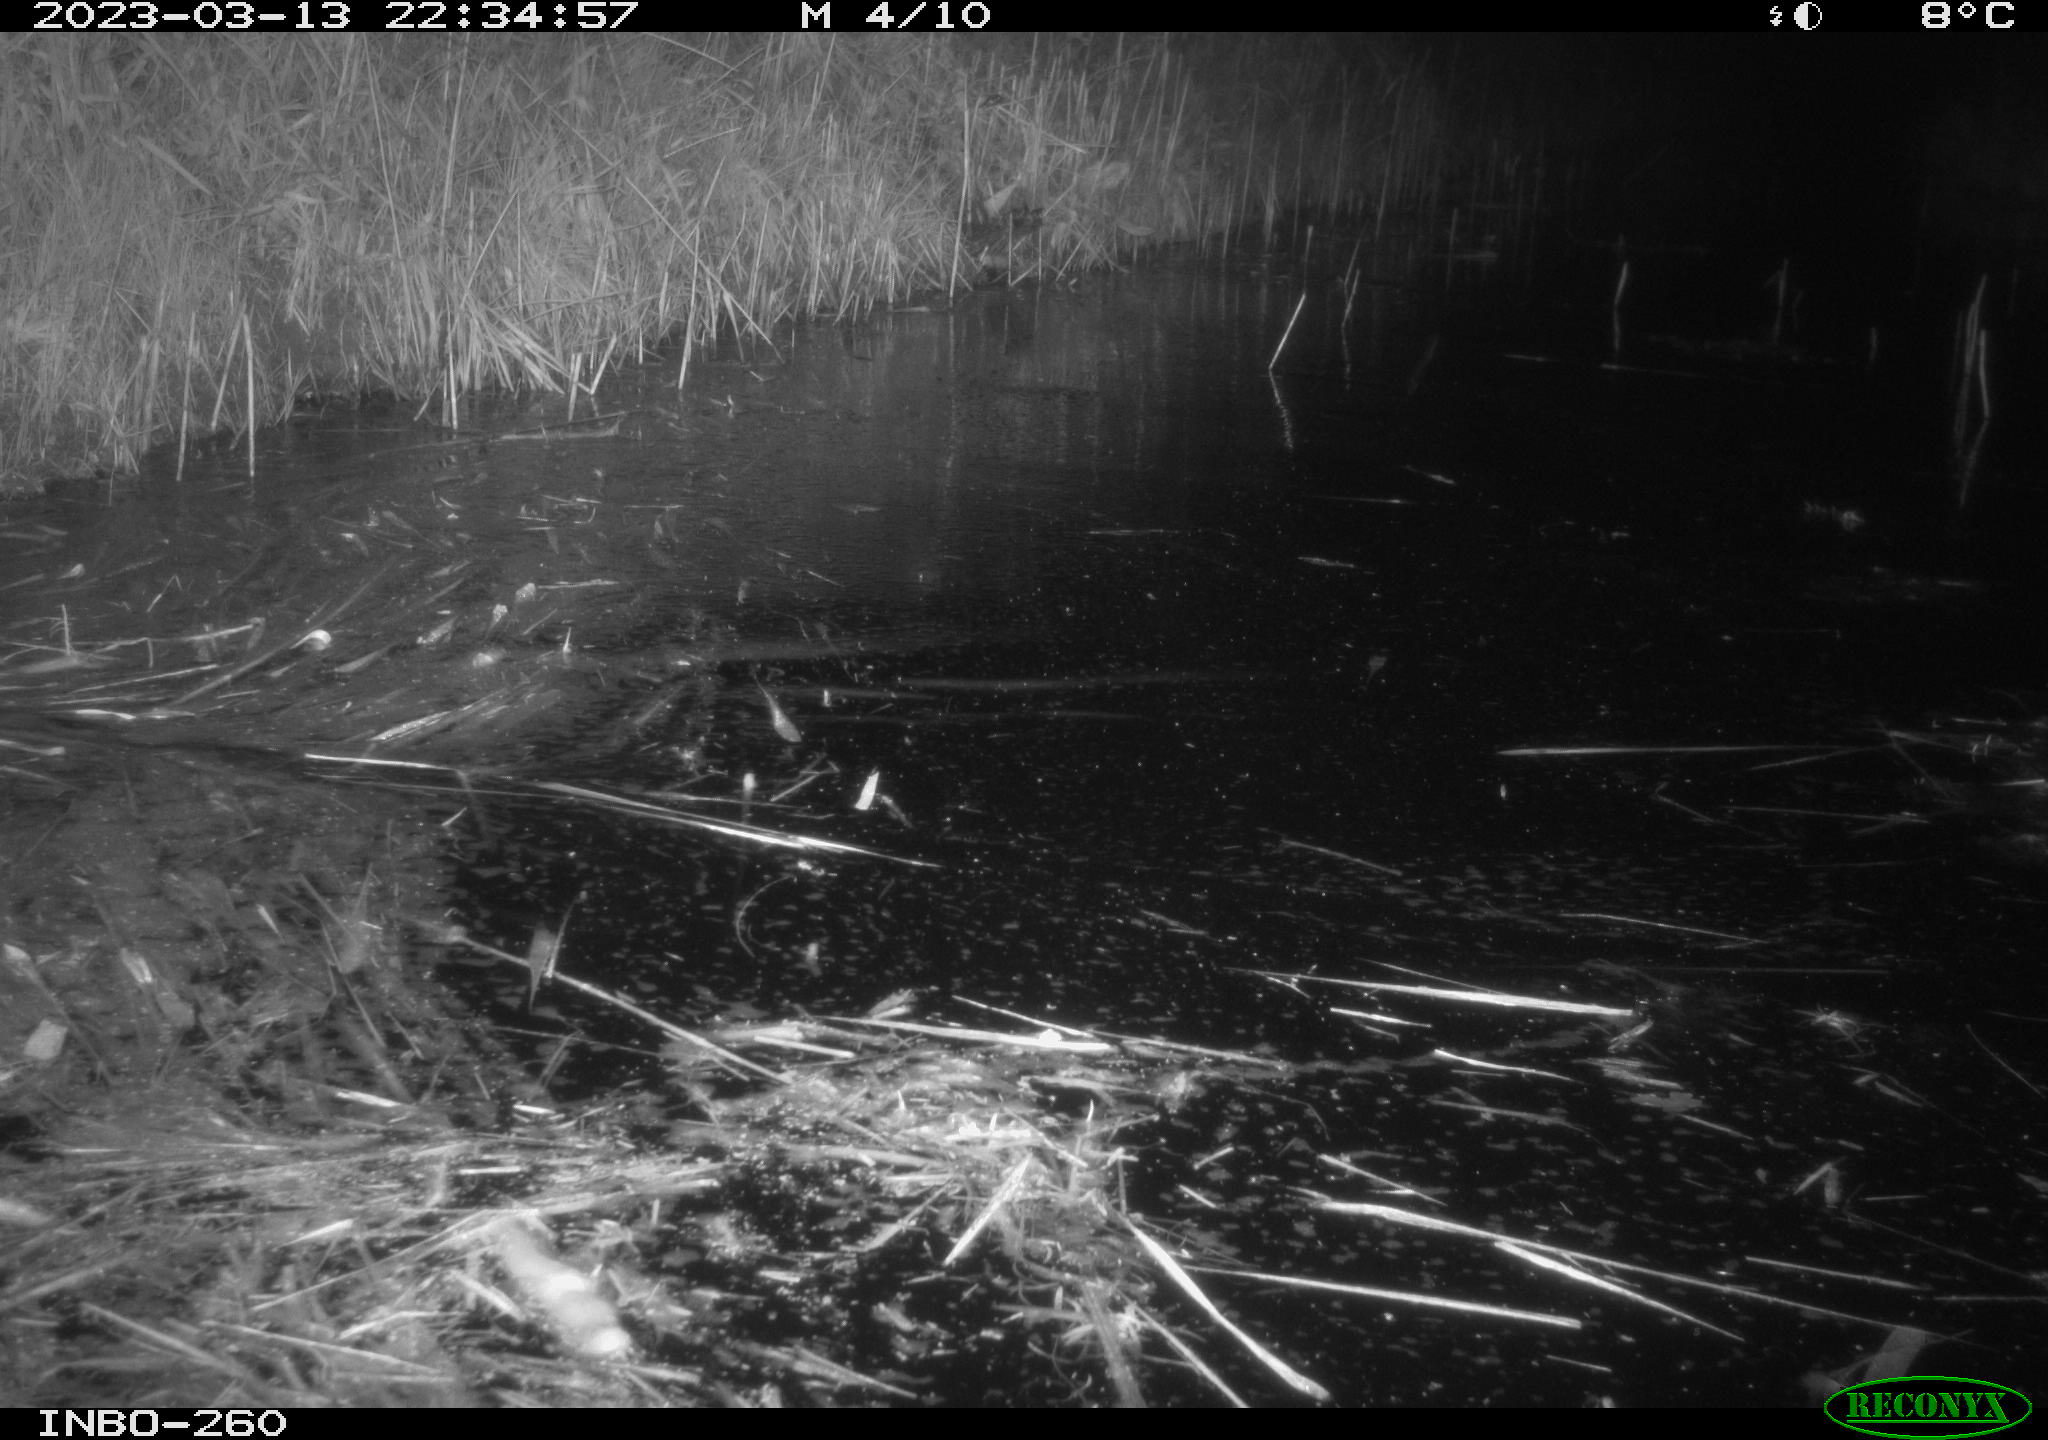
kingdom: Animalia
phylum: Chordata
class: Mammalia
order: Rodentia
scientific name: Rodentia
